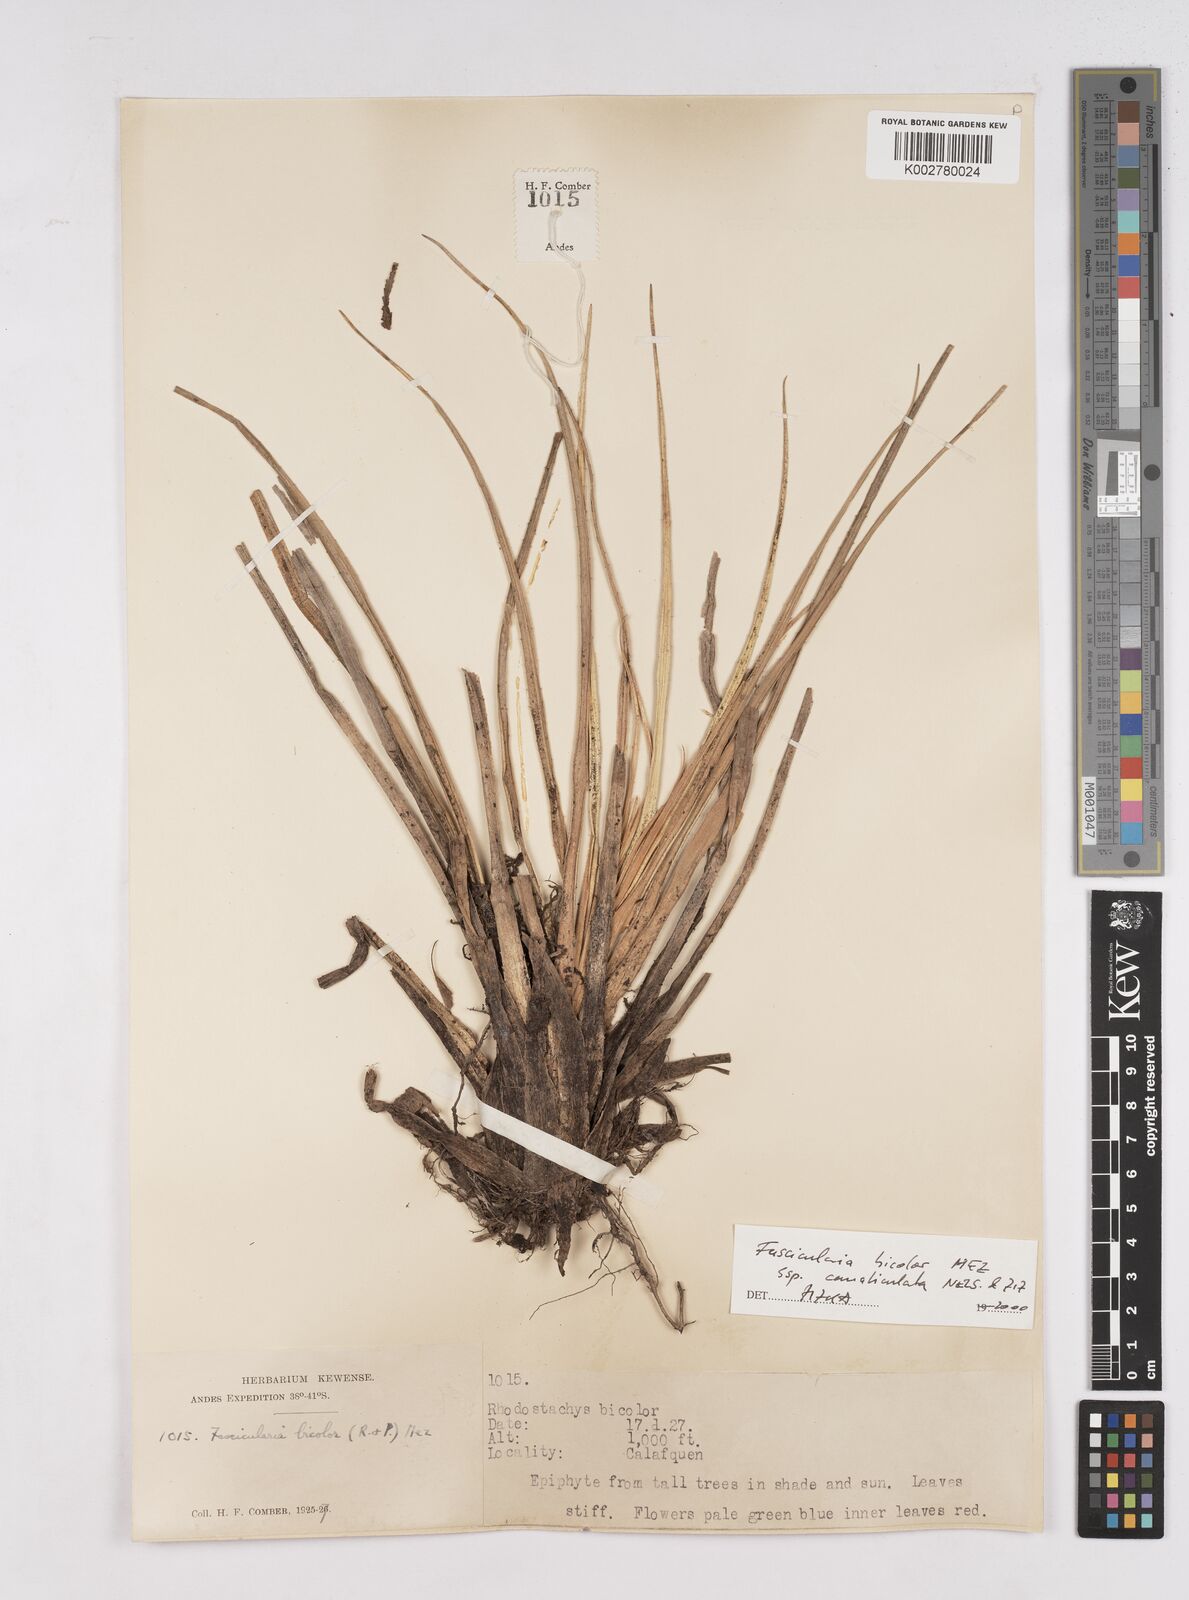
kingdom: Plantae
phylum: Tracheophyta
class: Liliopsida
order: Poales
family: Bromeliaceae
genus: Fascicularia
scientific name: Fascicularia bicolor
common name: Rhodostachys
